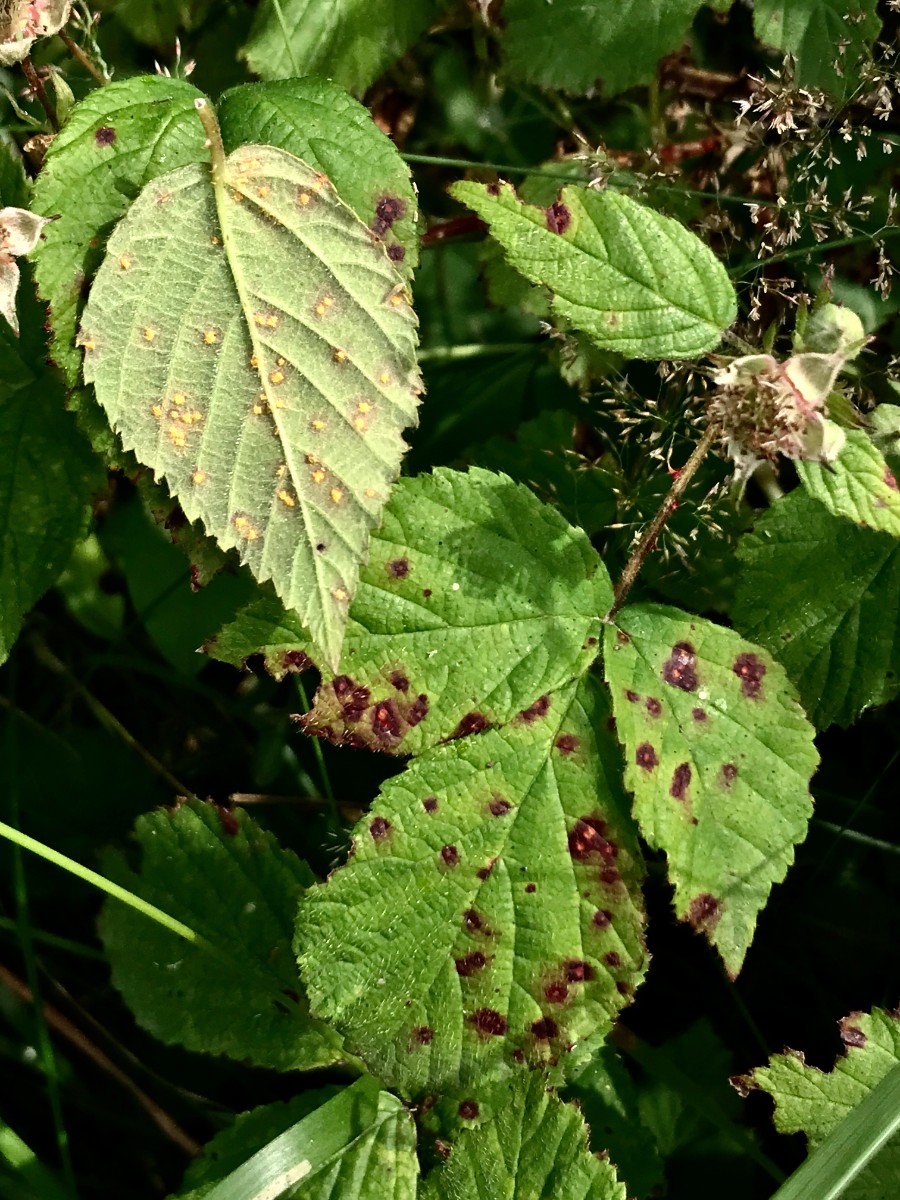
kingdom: Fungi
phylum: Basidiomycota
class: Pucciniomycetes
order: Pucciniales
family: Phragmidiaceae
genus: Phragmidium
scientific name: Phragmidium
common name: flercellerust
